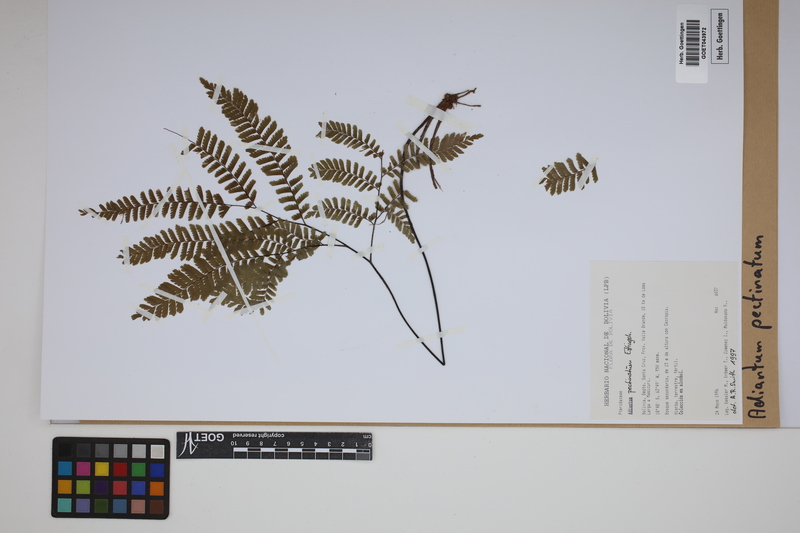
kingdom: Plantae
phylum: Tracheophyta
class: Polypodiopsida
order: Polypodiales
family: Pteridaceae
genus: Adiantum
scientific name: Adiantum pectinatum
